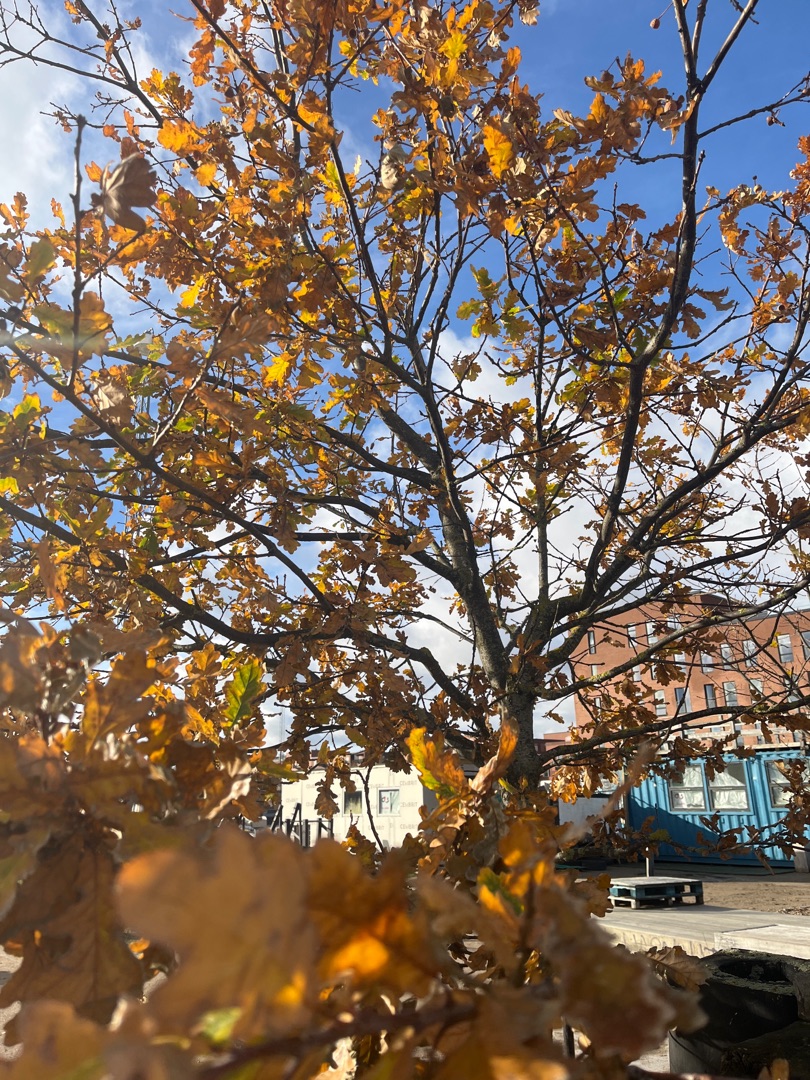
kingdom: Plantae
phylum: Tracheophyta
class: Magnoliopsida
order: Fagales
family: Fagaceae
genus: Quercus
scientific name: Quercus robur
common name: Stilk-eg/almindelig eg
